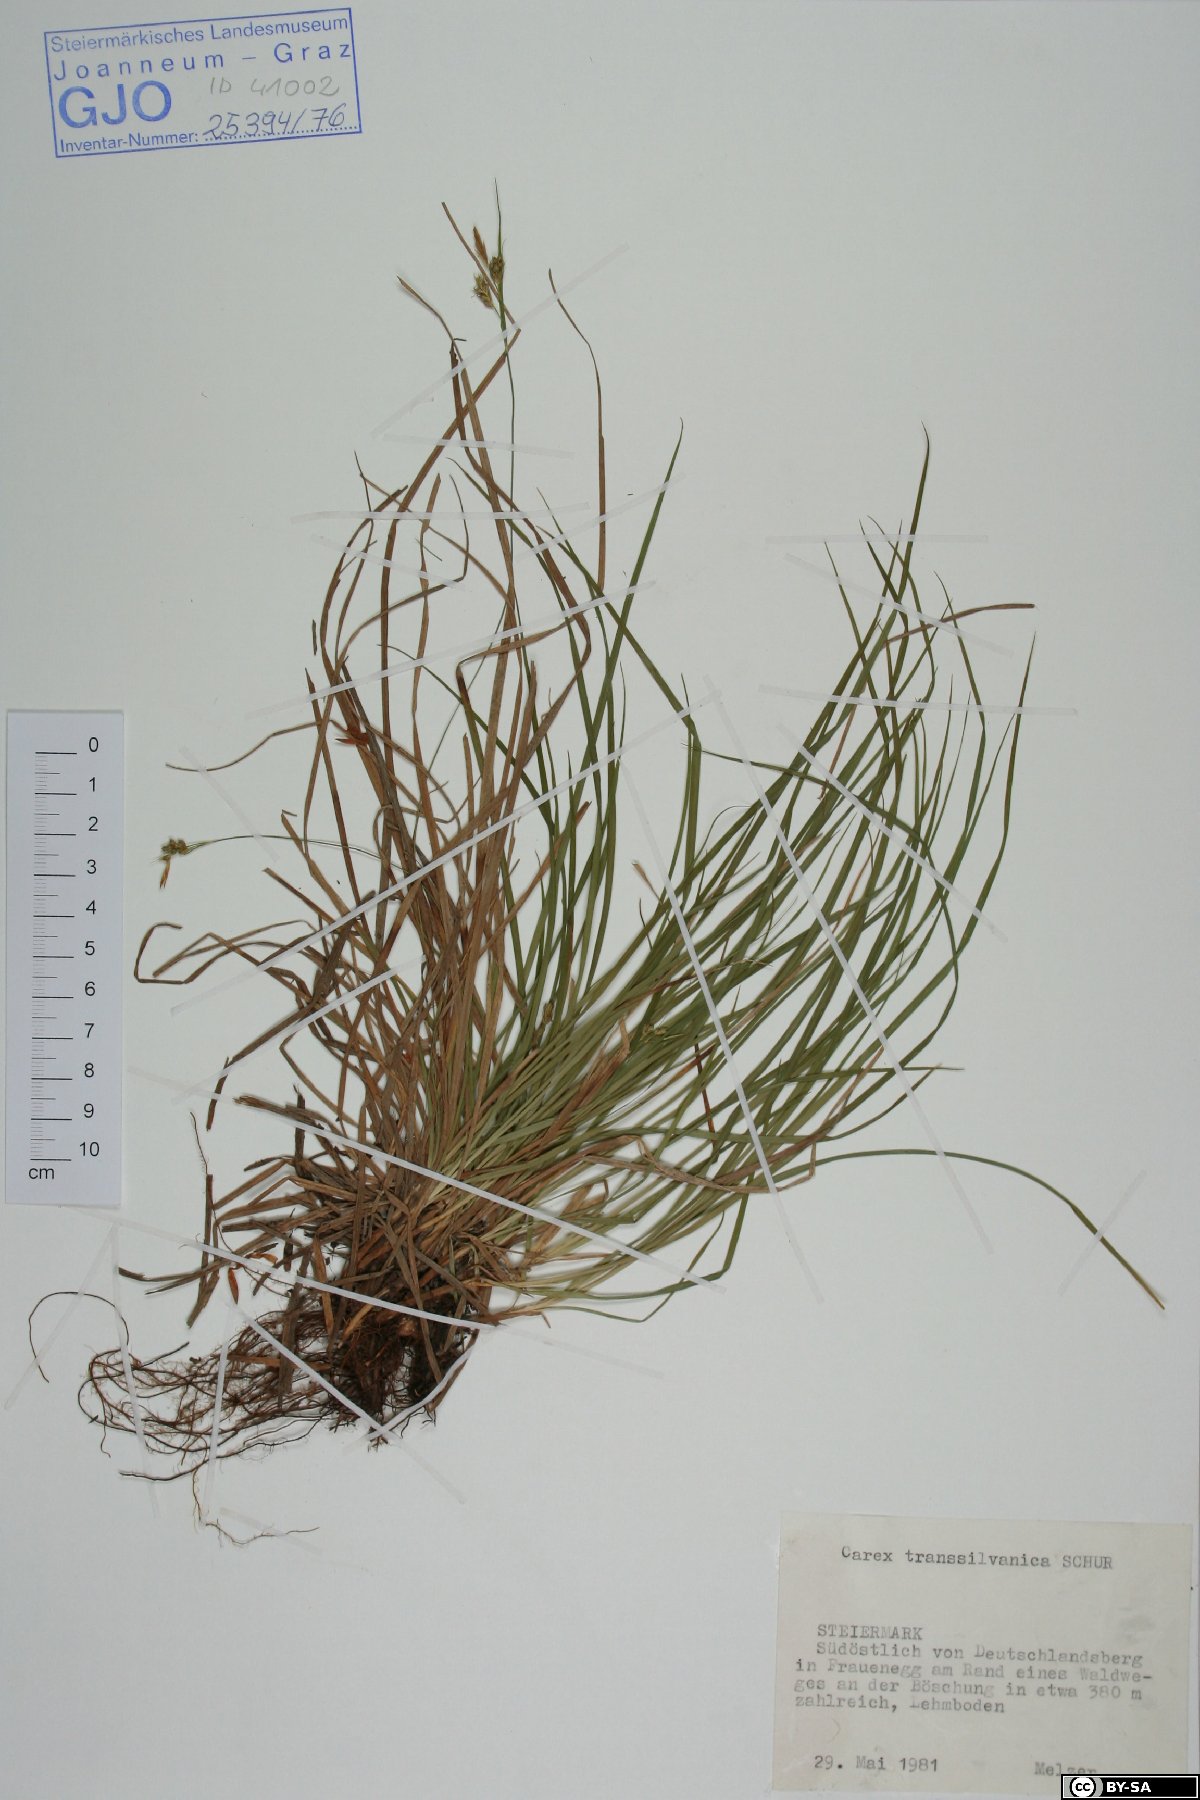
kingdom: Plantae
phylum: Tracheophyta
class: Liliopsida
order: Poales
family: Cyperaceae
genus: Carex
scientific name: Carex depressa
